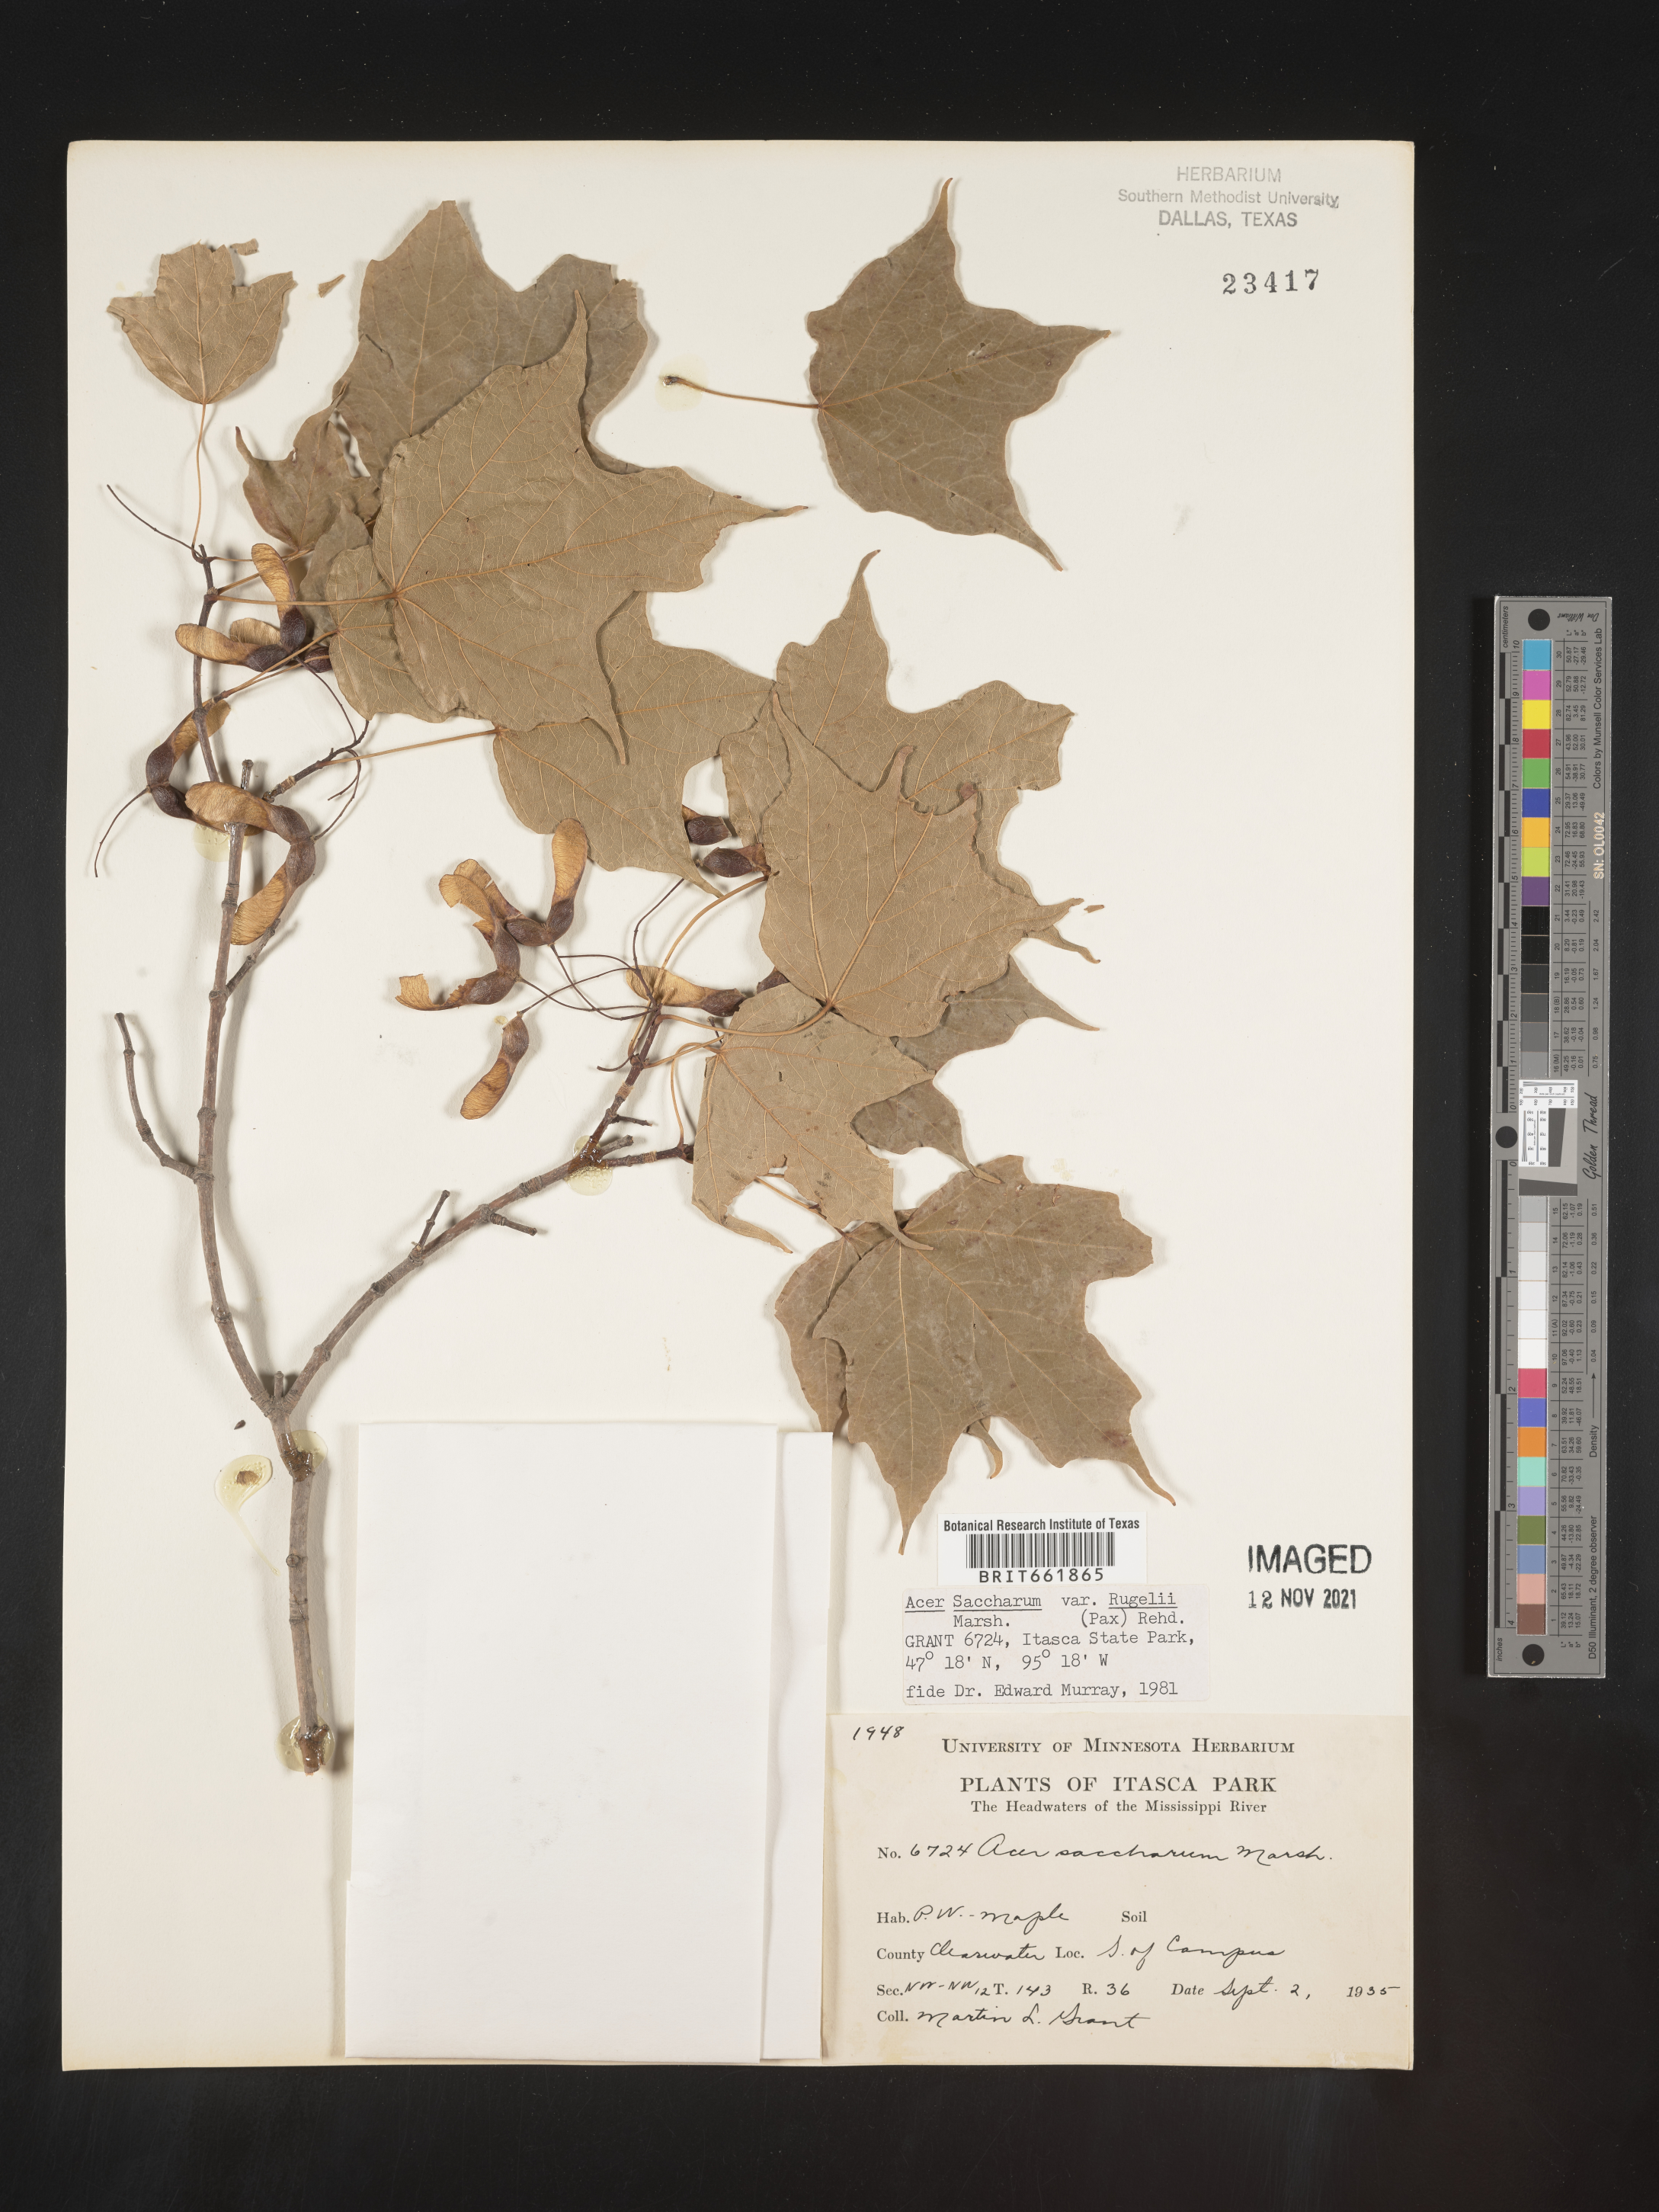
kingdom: Plantae
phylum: Tracheophyta
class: Magnoliopsida
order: Sapindales
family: Sapindaceae
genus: Acer
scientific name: Acer saccharum
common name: Sugar maple
